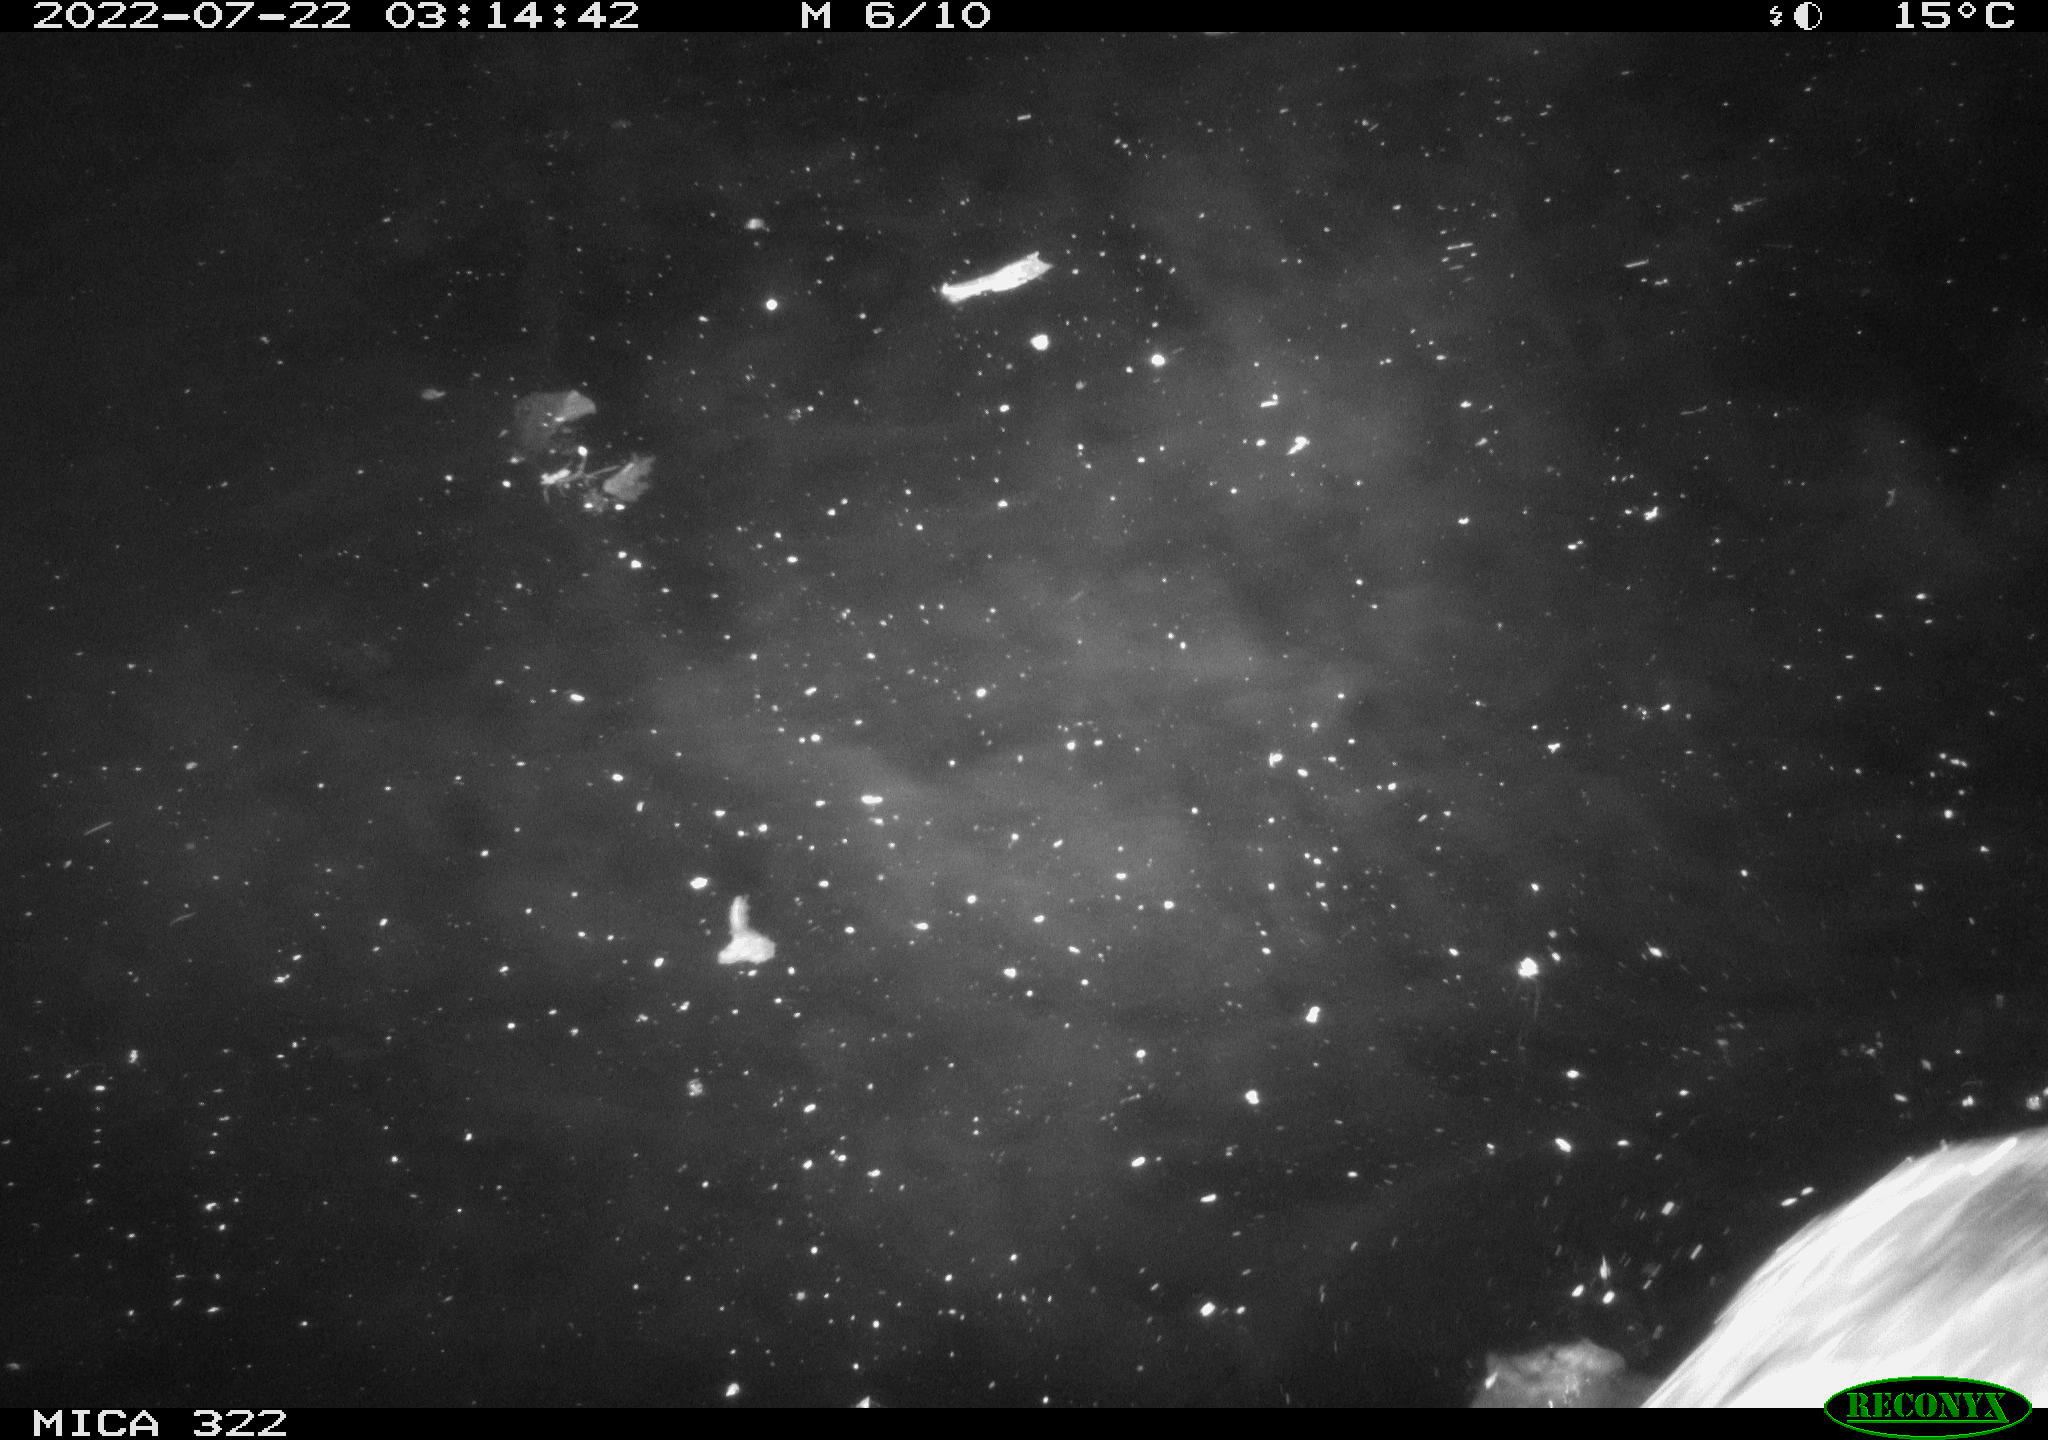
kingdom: Animalia
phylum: Chordata
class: Aves
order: Anseriformes
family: Anatidae
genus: Mareca
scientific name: Mareca strepera
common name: Gadwall
